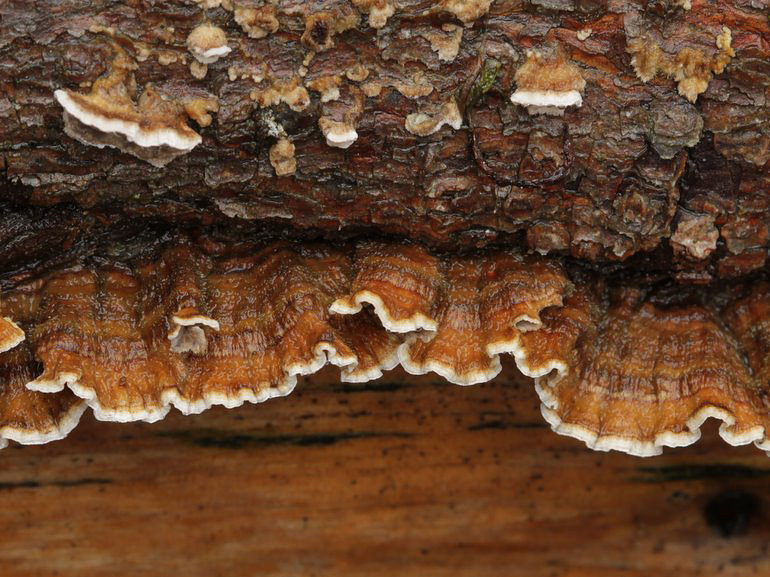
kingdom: Fungi
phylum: Basidiomycota
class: Agaricomycetes
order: Russulales
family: Stereaceae
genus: Stereum
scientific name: Stereum sanguinolentum
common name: blødende lædersvamp
